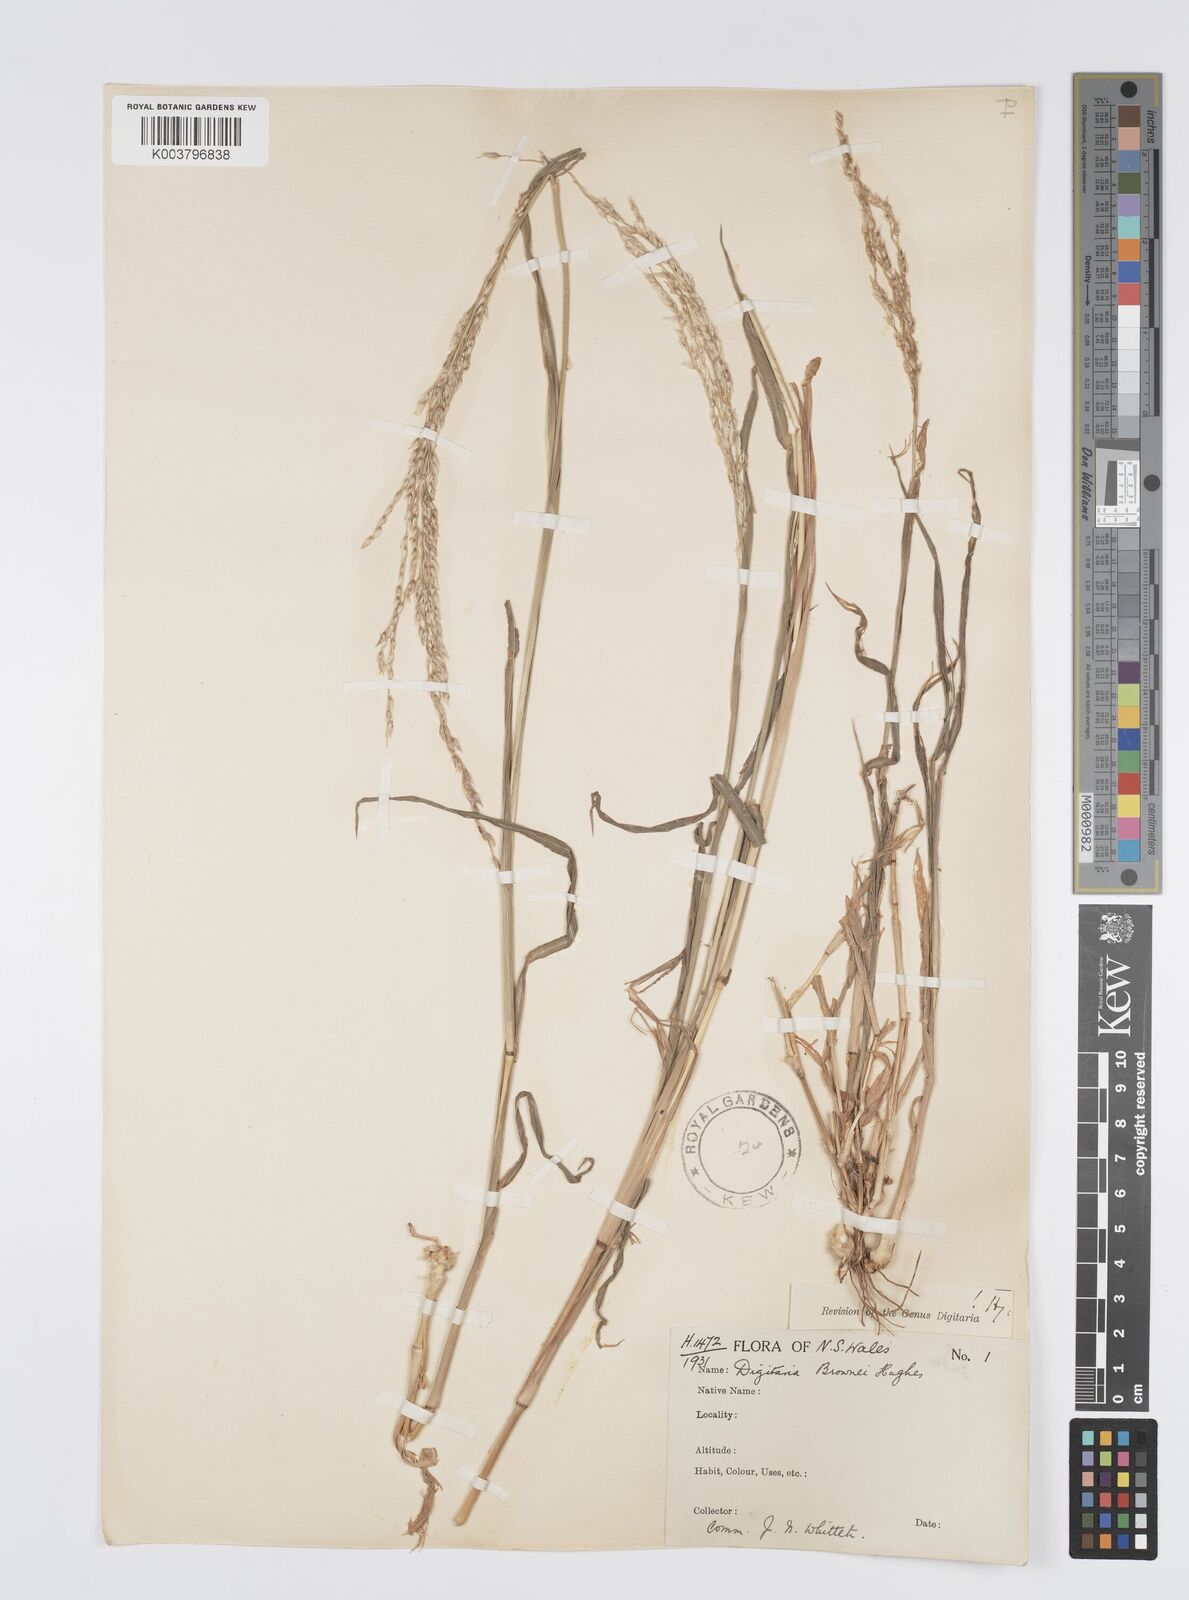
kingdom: Plantae
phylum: Tracheophyta
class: Liliopsida
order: Poales
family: Poaceae
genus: Digitaria
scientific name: Digitaria brownii
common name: Cotton grass
